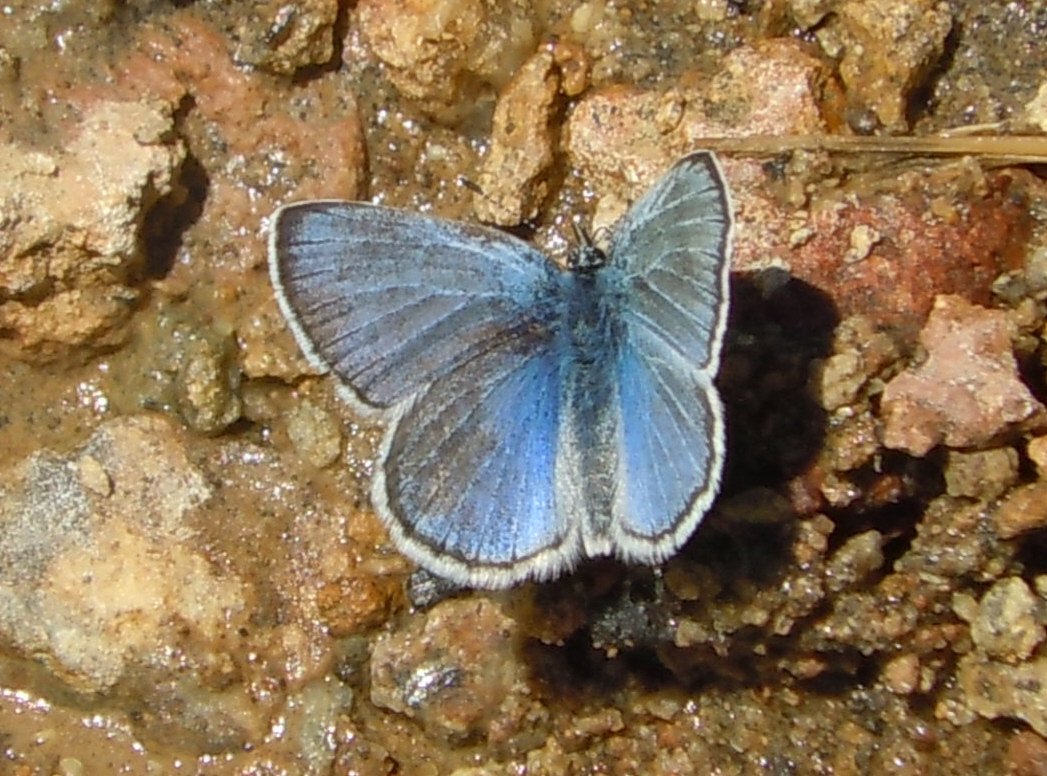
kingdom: Animalia
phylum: Arthropoda
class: Insecta
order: Lepidoptera
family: Lycaenidae
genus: Glaucopsyche
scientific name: Glaucopsyche lygdamus
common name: Silvery Blue
